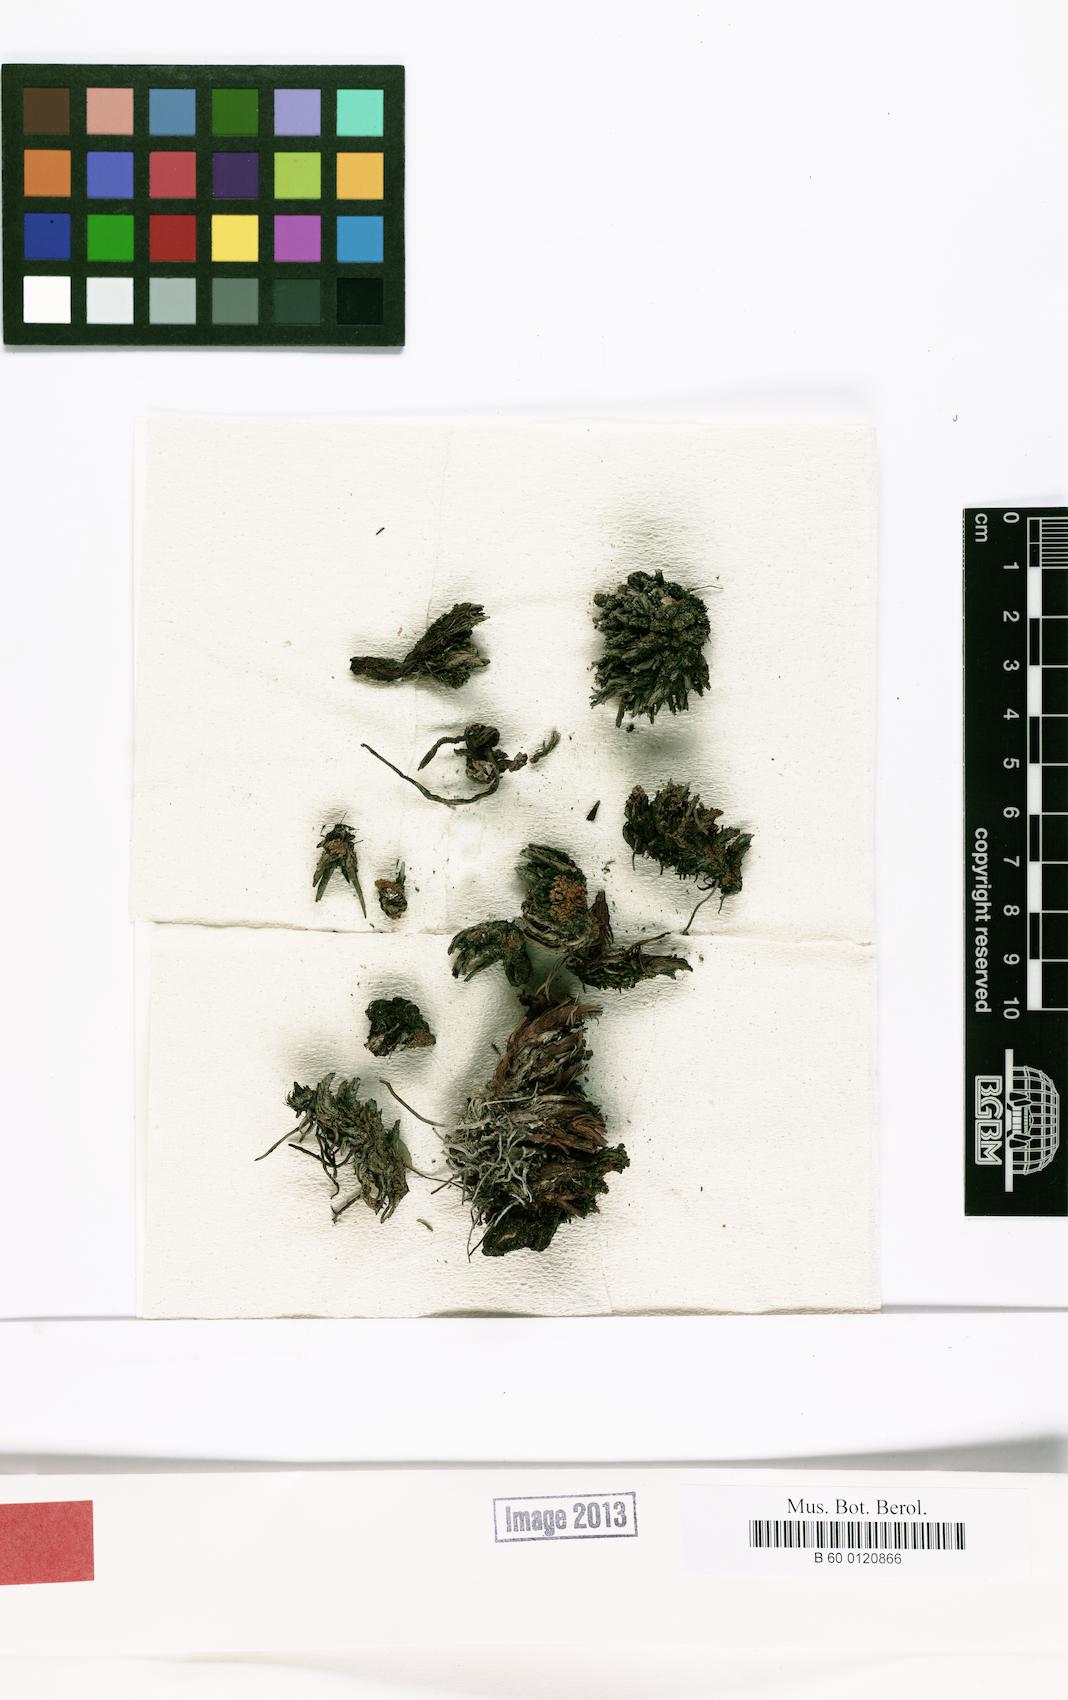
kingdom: Fungi
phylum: Ascomycota
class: Lecanoromycetes
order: Teloschistales
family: Teloschistaceae
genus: Caloplaca
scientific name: Caloplaca thuringiaca
